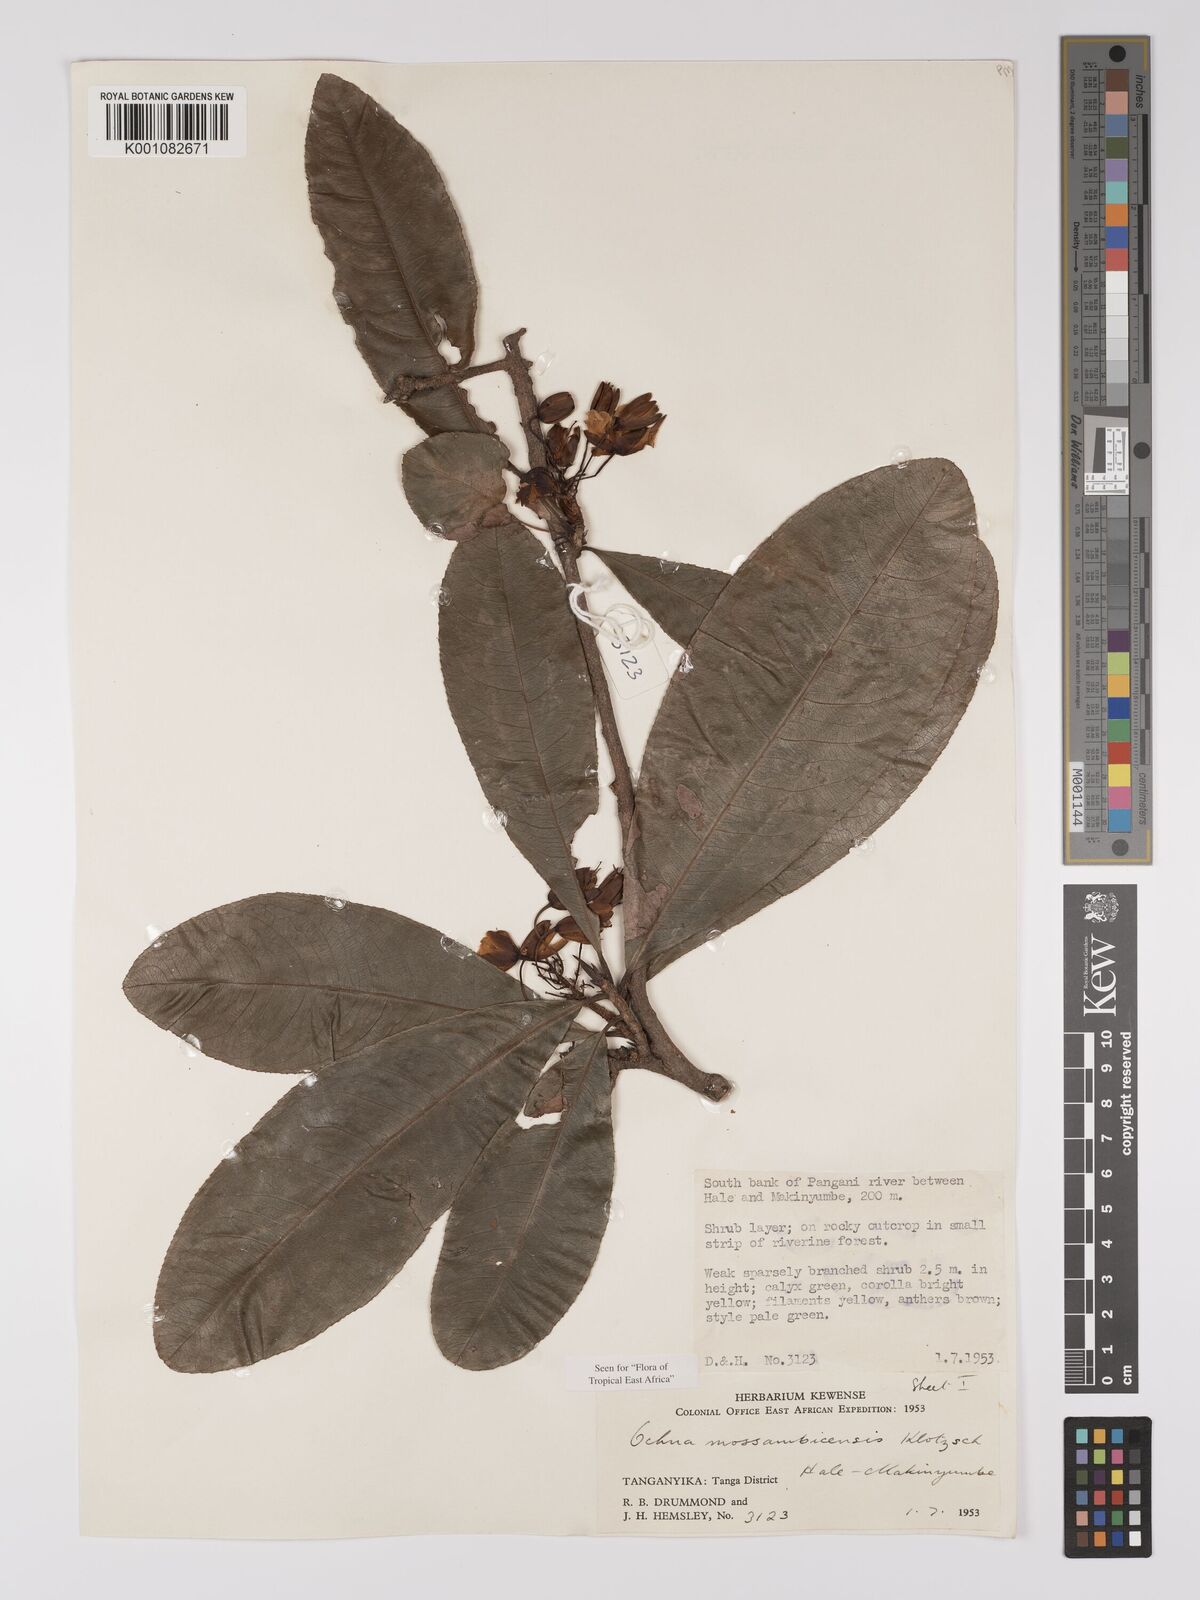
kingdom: Plantae
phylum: Tracheophyta
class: Magnoliopsida
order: Malpighiales
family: Ochnaceae
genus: Ochna
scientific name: Ochna atropurpurea
